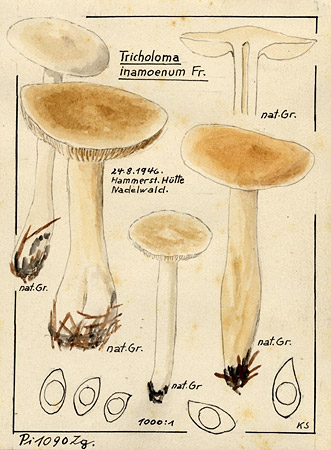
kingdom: Fungi
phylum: Basidiomycota
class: Agaricomycetes
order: Agaricales
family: Tricholomataceae
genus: Tricholoma
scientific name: Tricholoma inamoenum
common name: Gassy knight
